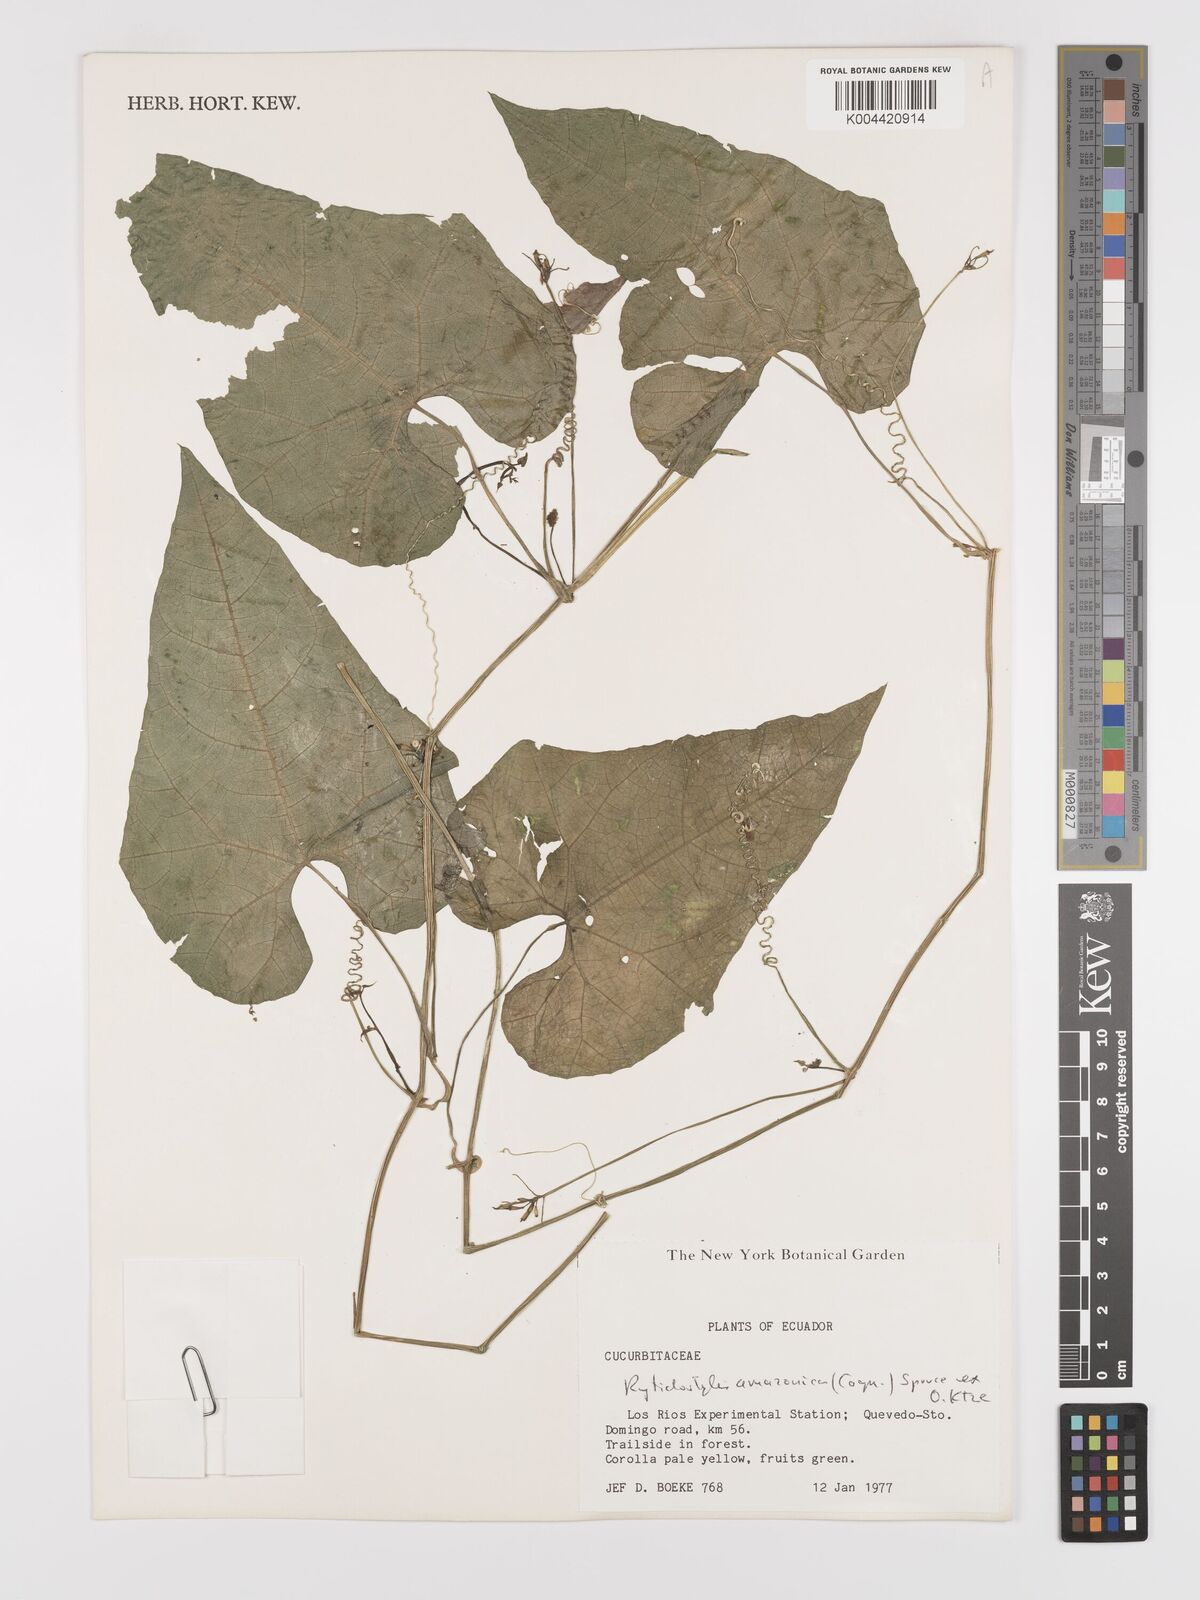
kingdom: Plantae
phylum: Tracheophyta
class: Magnoliopsida
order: Cucurbitales
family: Cucurbitaceae
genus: Cyclanthera
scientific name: Cyclanthera carthagenensis
